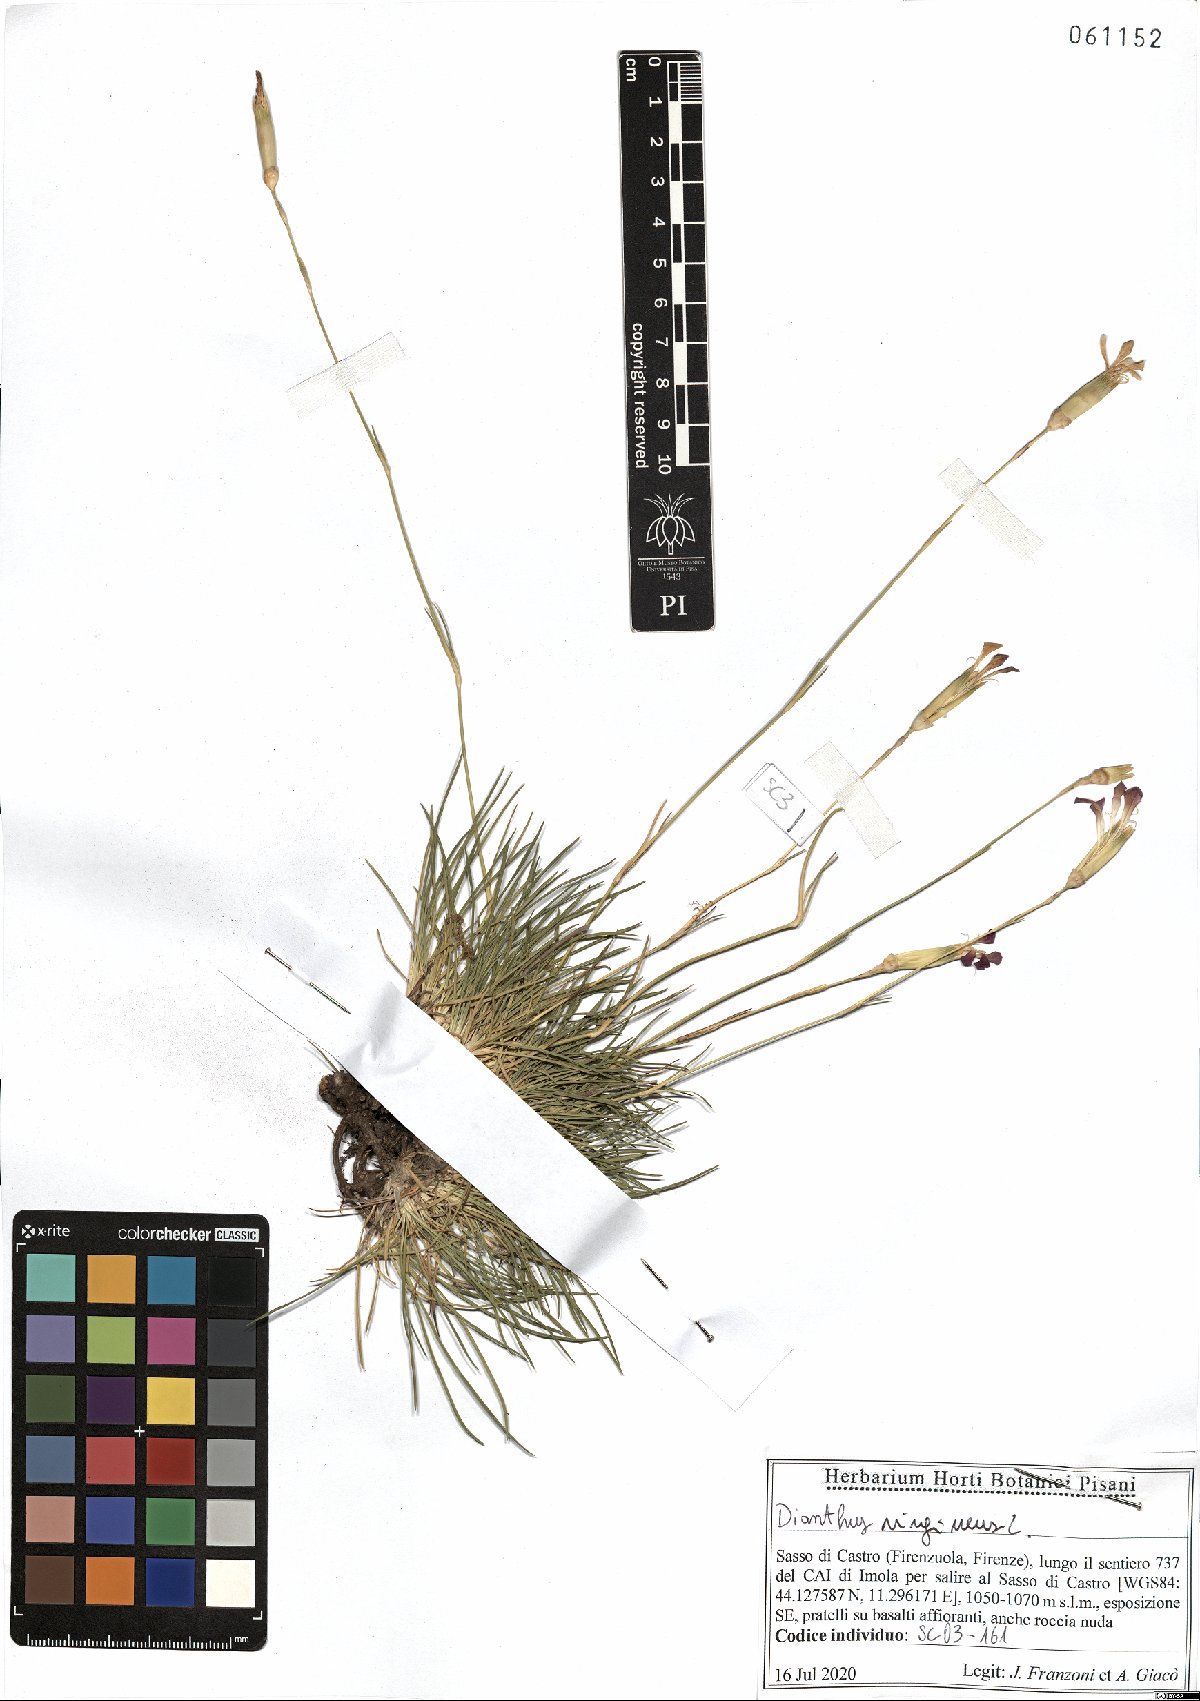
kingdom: Plantae
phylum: Tracheophyta
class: Magnoliopsida
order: Caryophyllales
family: Caryophyllaceae
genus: Dianthus
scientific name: Dianthus virgineus
